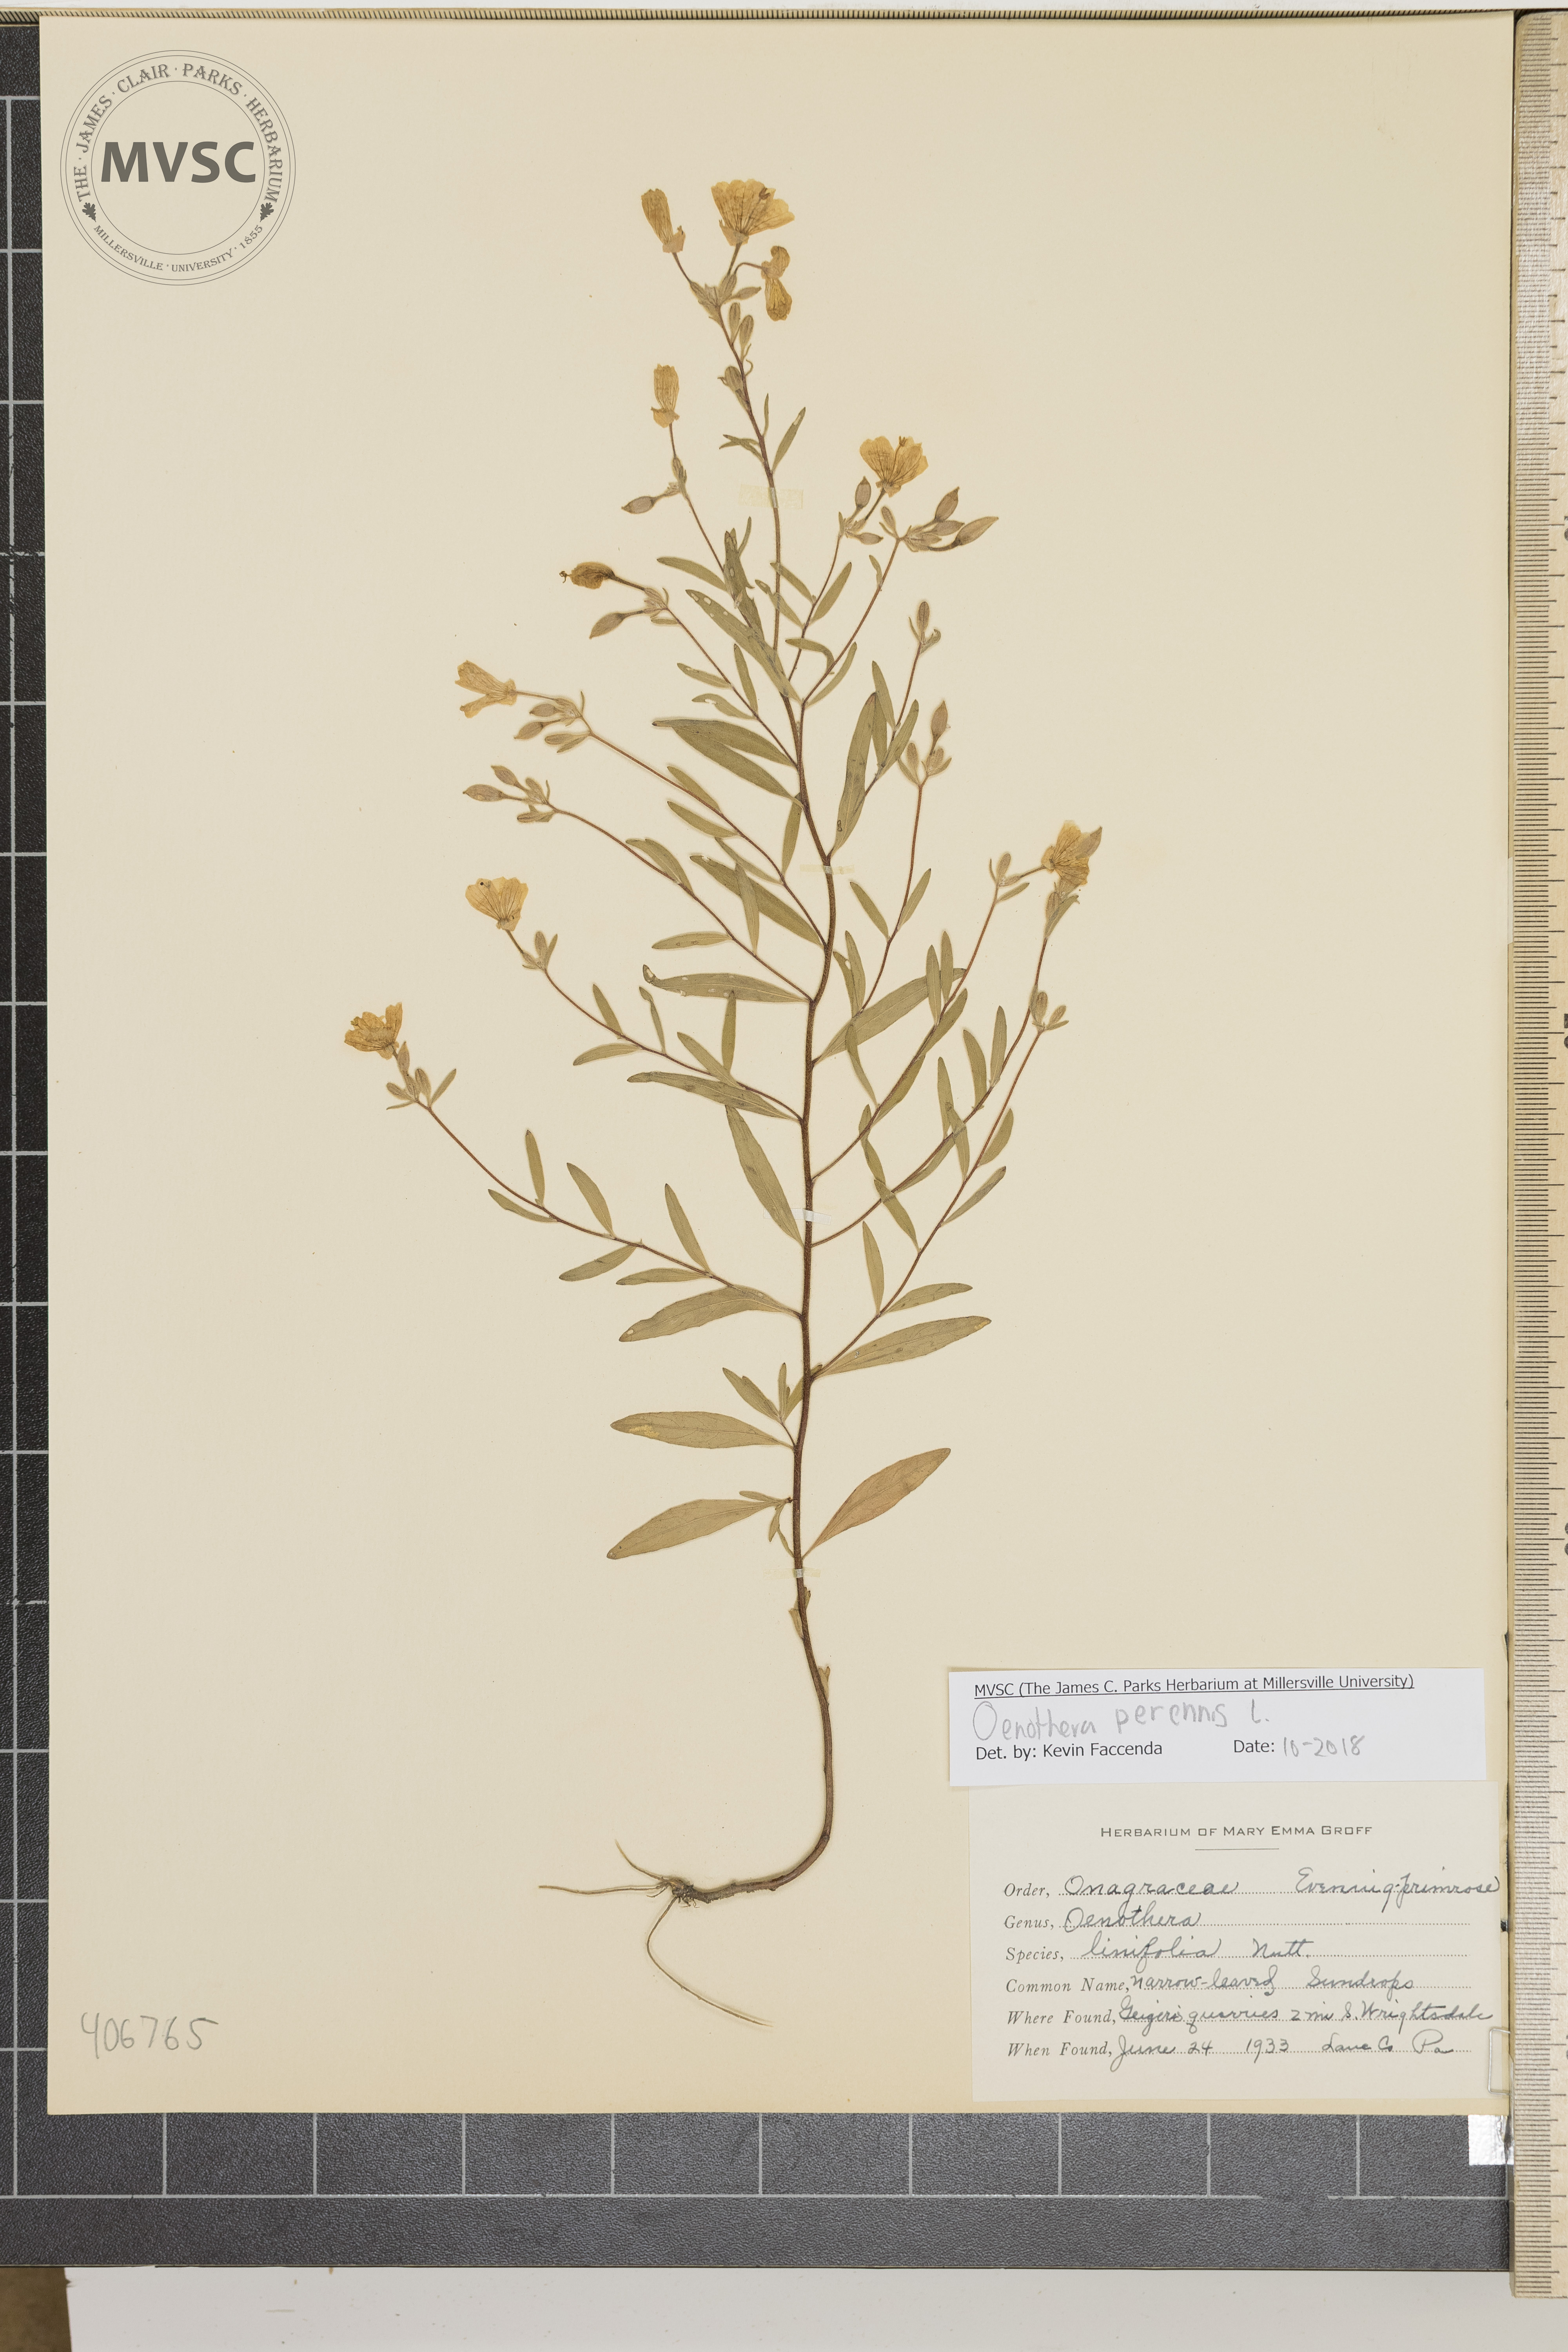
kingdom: Plantae
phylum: Tracheophyta
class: Magnoliopsida
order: Myrtales
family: Onagraceae
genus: Oenothera
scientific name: Oenothera perennis
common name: narrow-leaved sundrops
